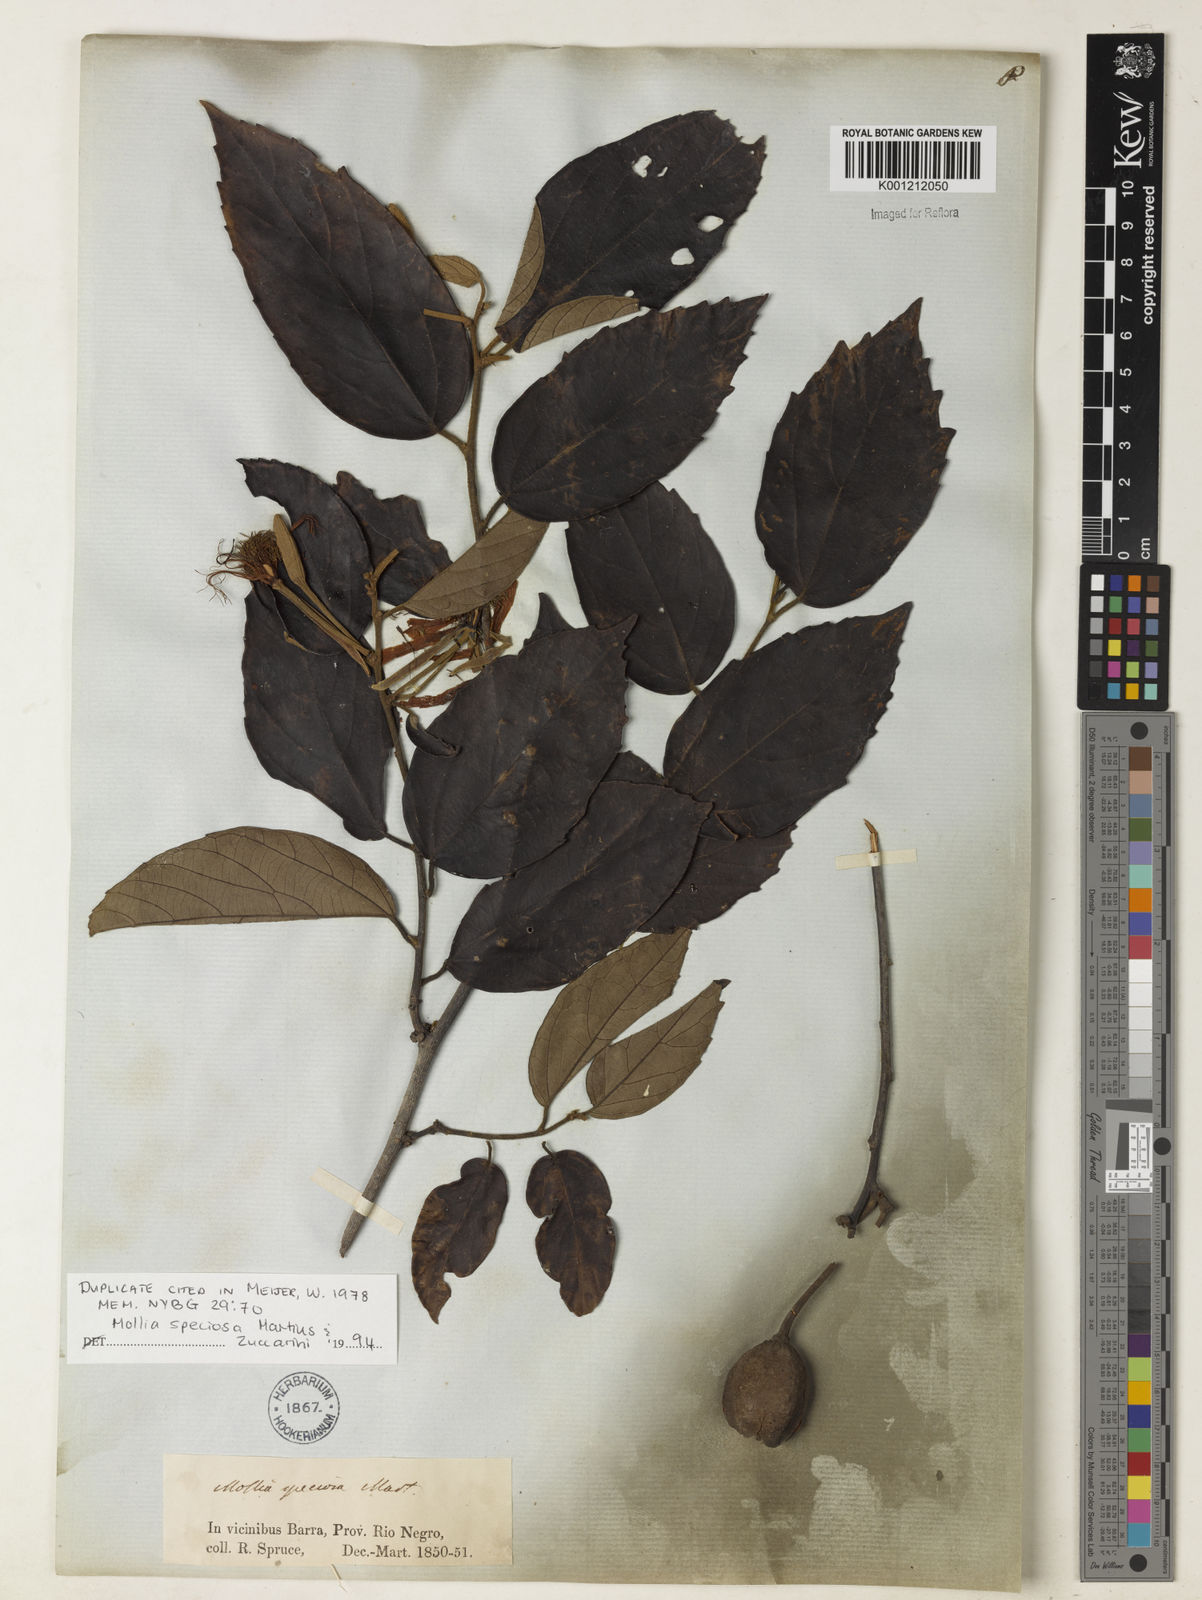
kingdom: Plantae
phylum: Tracheophyta
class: Magnoliopsida
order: Malvales
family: Malvaceae
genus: Mollia
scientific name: Mollia speciosa
